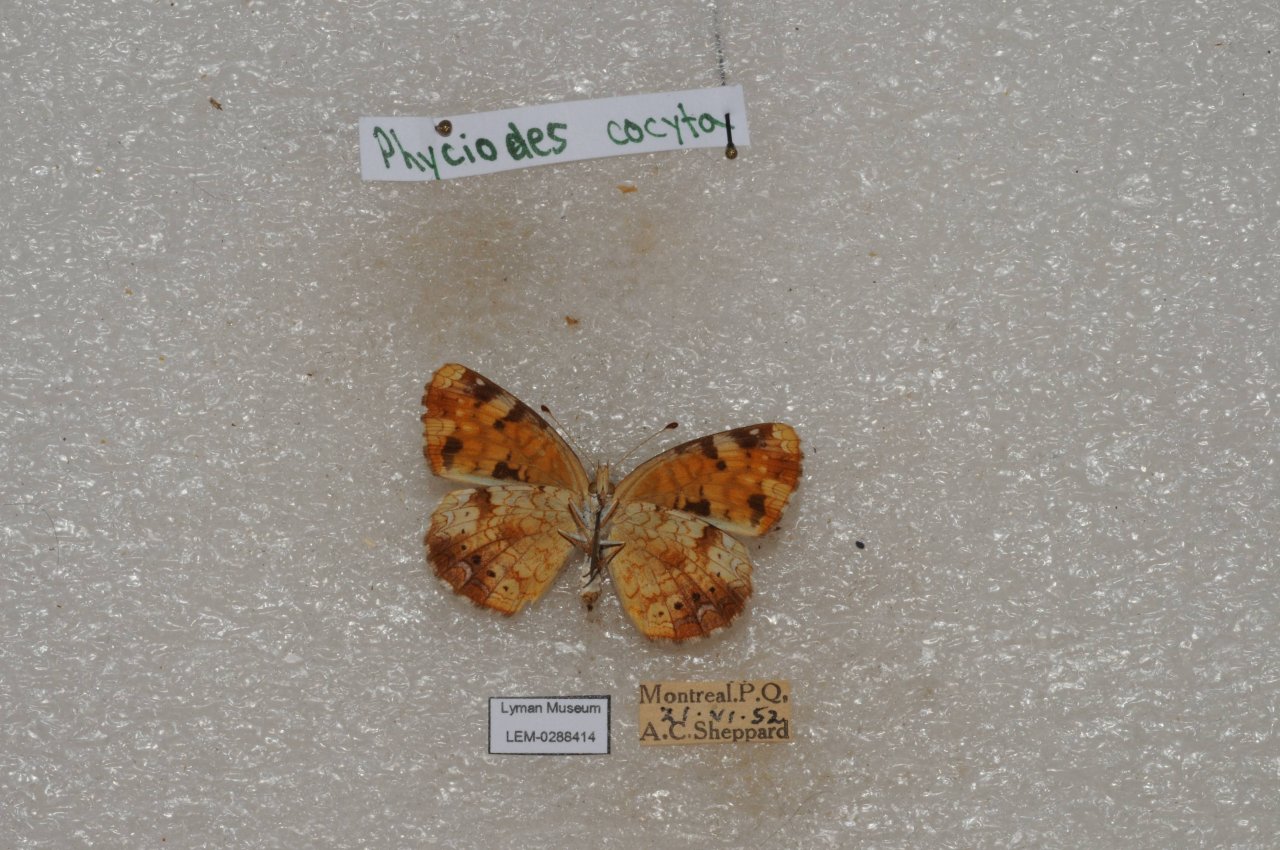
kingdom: Animalia
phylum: Arthropoda
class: Insecta
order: Lepidoptera
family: Nymphalidae
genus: Phyciodes
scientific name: Phyciodes tharos
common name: Northern Crescent
